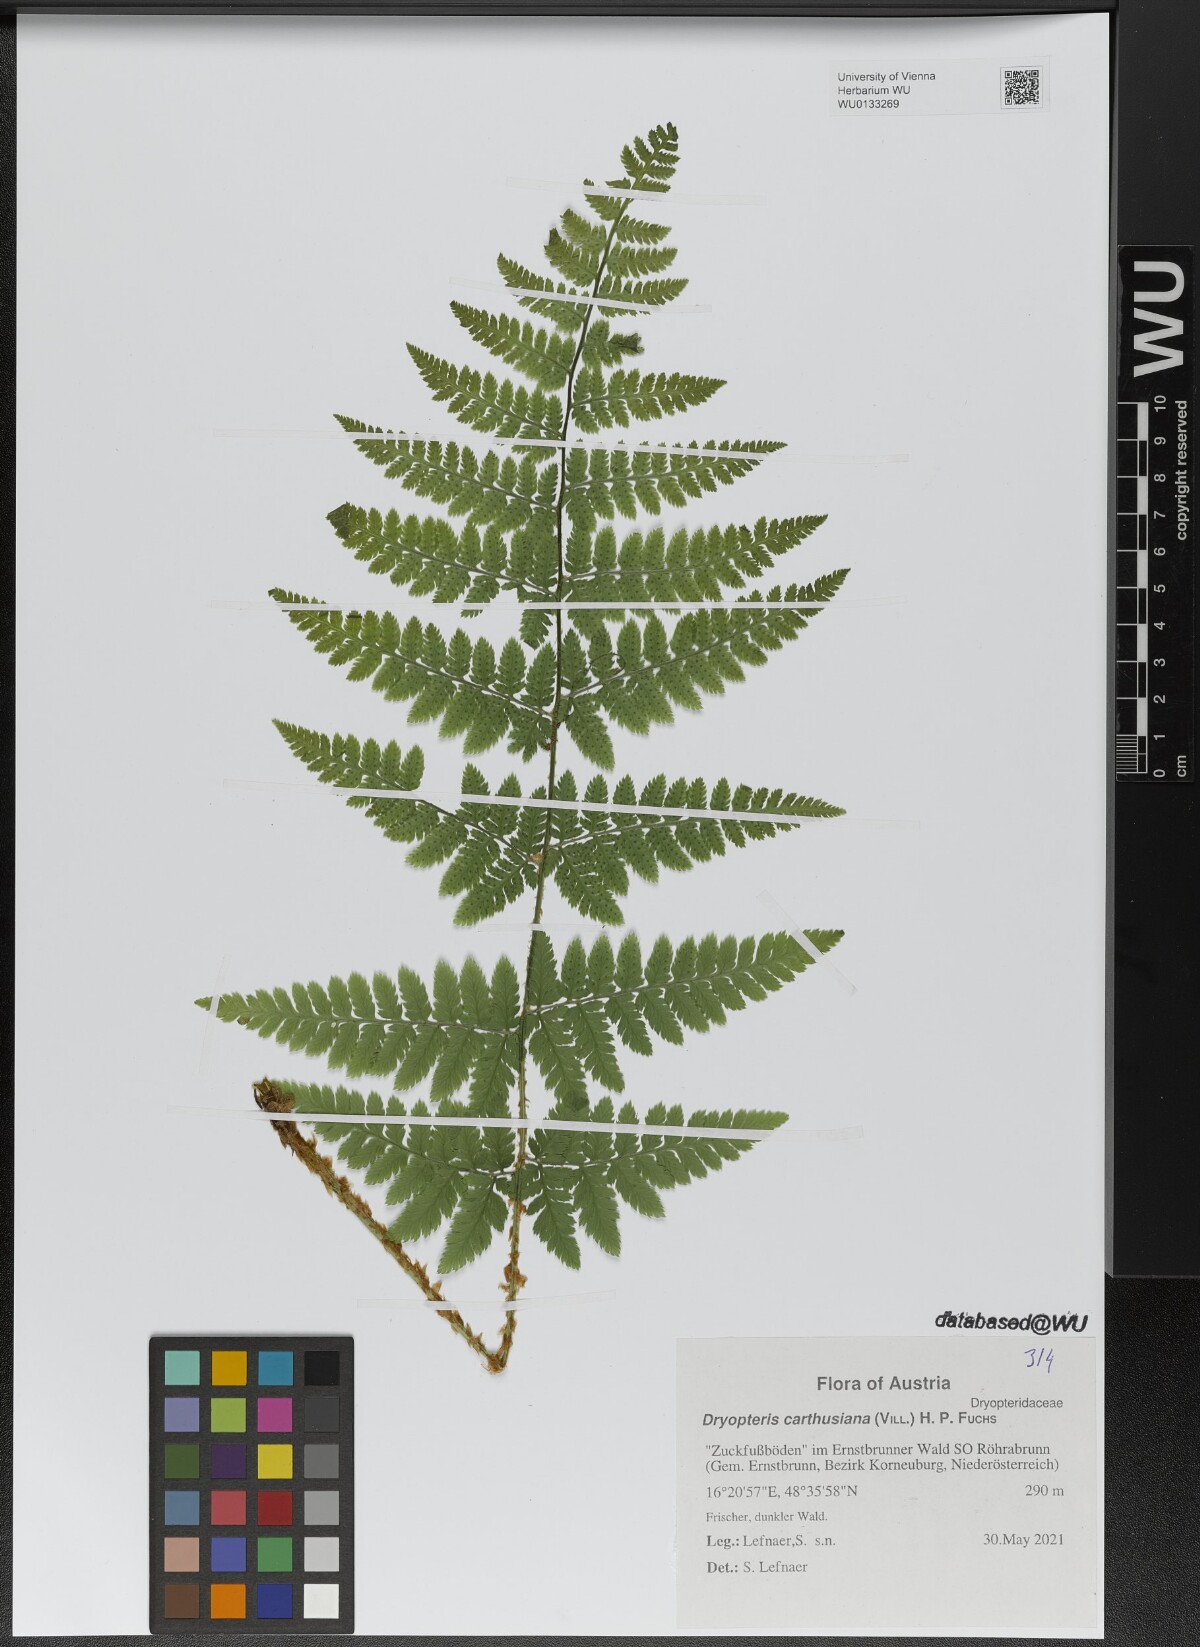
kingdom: Plantae
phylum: Tracheophyta
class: Polypodiopsida
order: Polypodiales
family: Dryopteridaceae
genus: Dryopteris
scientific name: Dryopteris carthusiana
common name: Narrow buckler-fern
